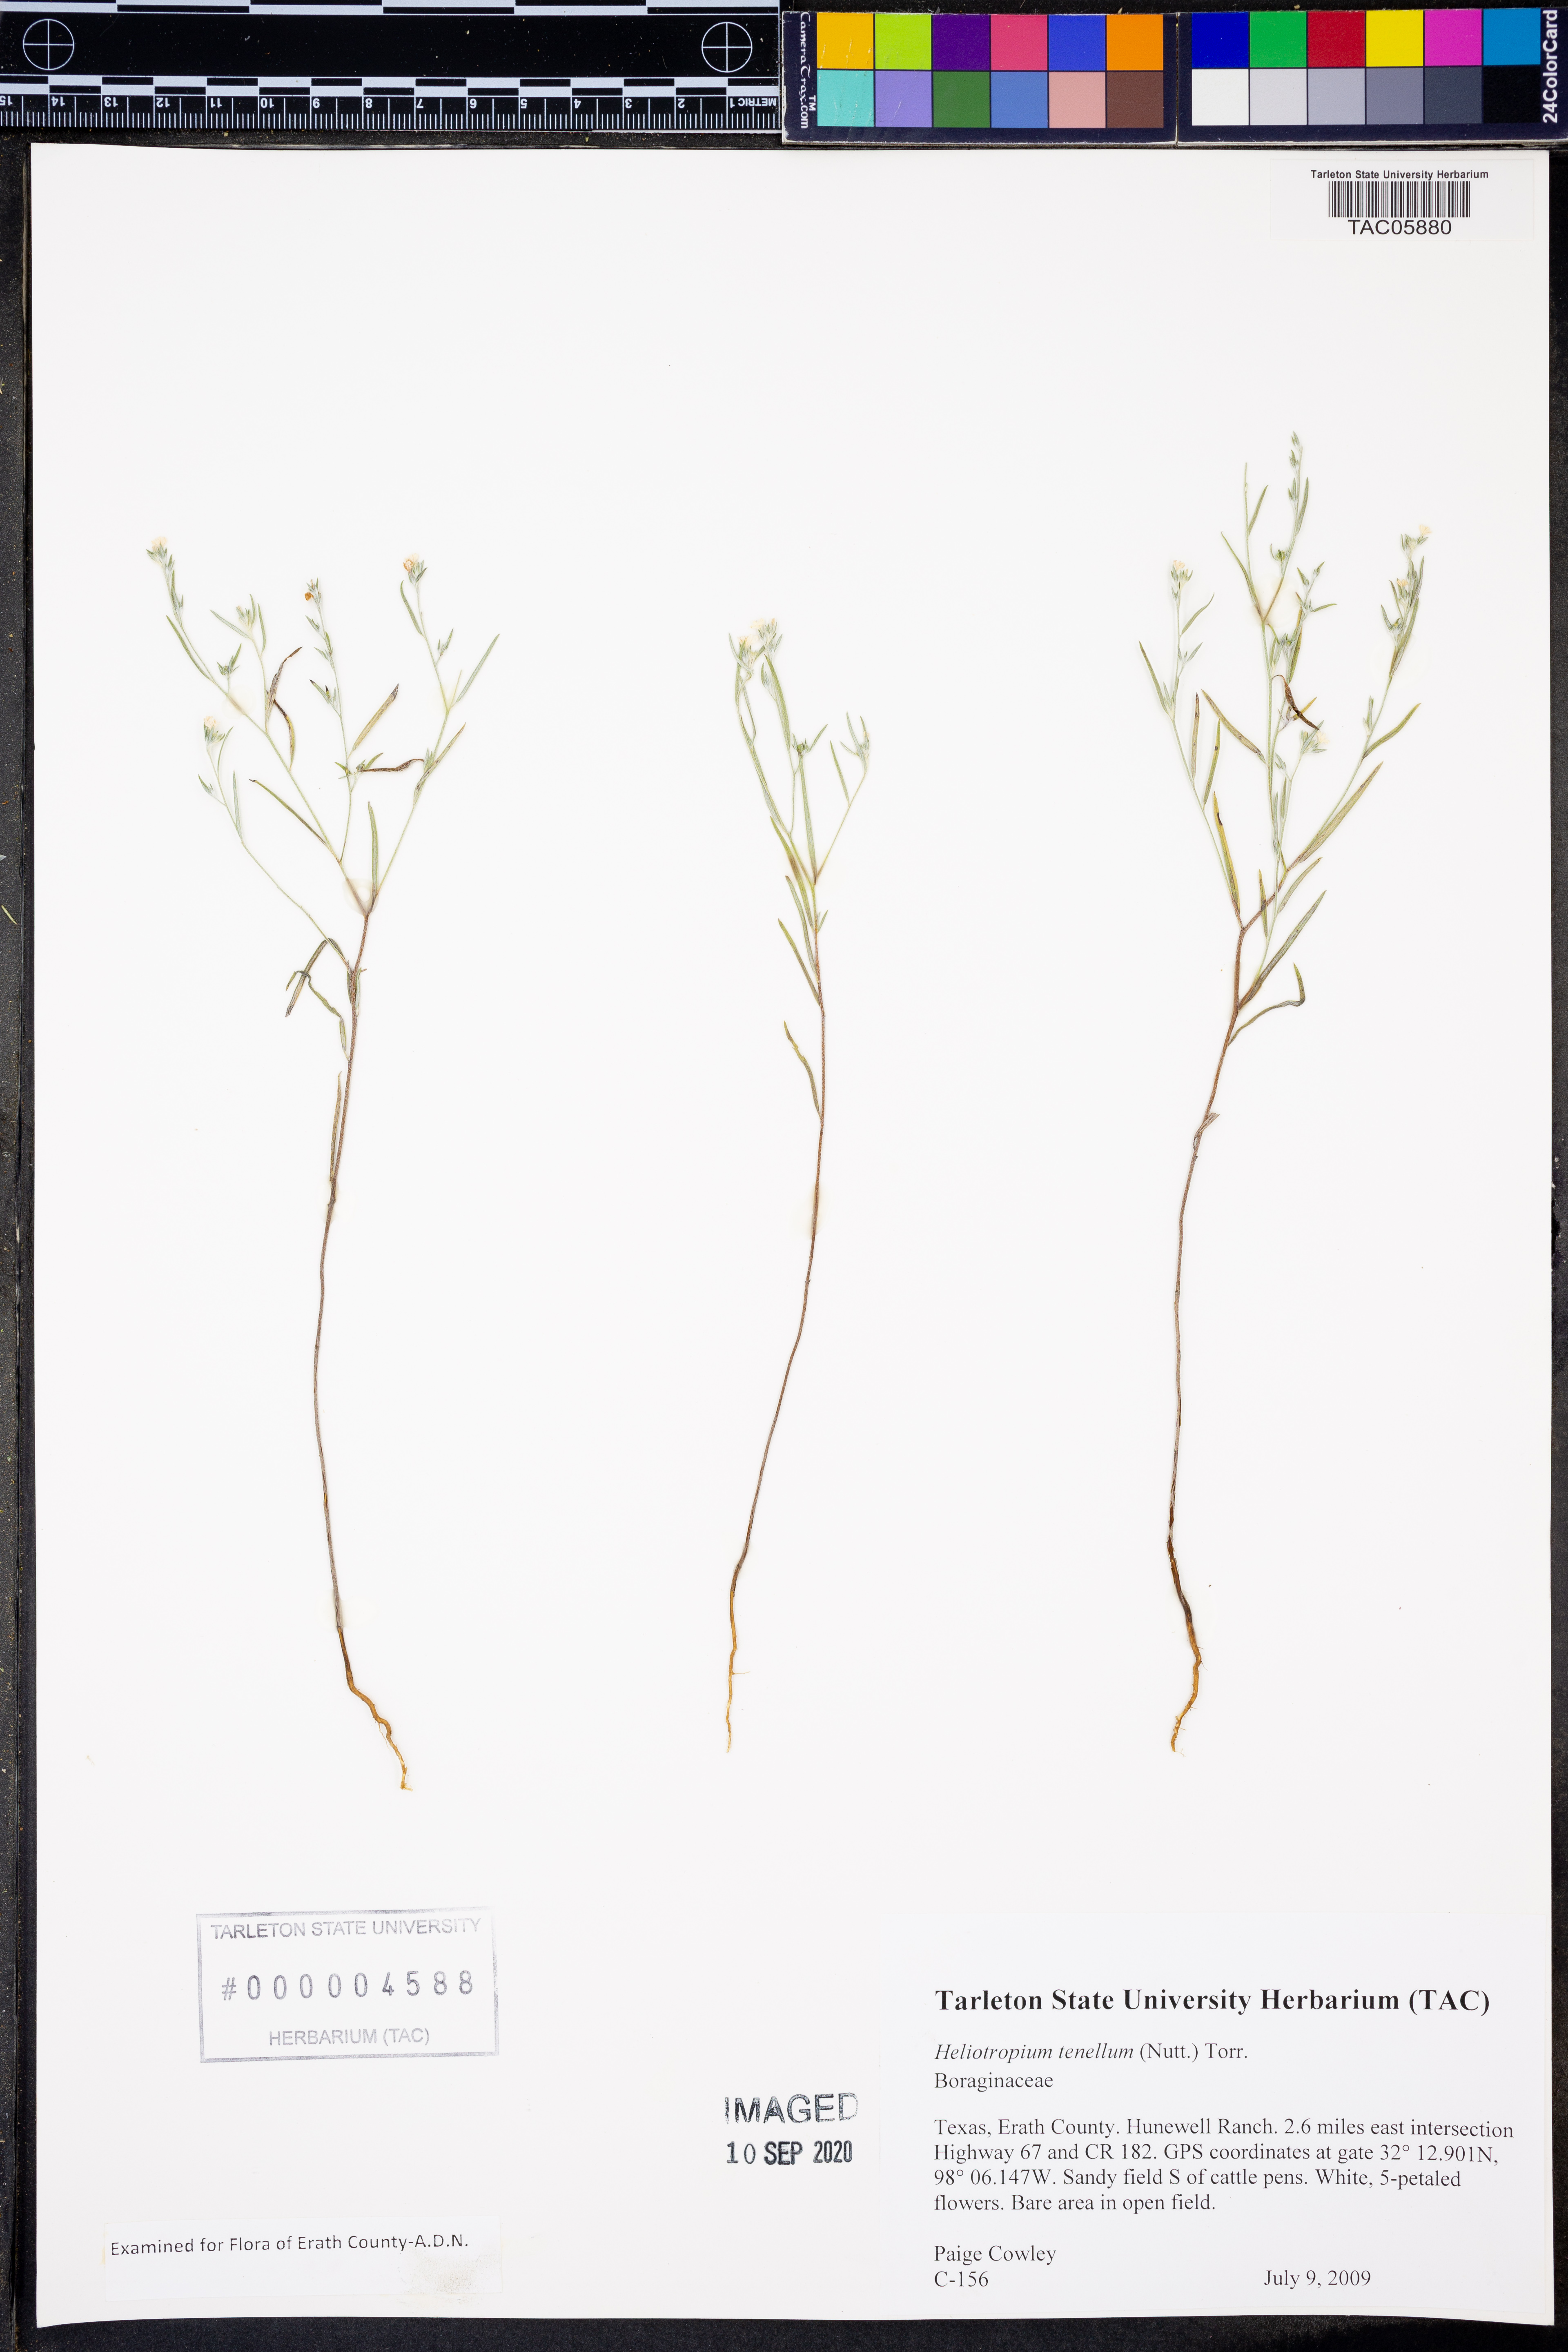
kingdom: Plantae
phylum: Tracheophyta
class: Magnoliopsida
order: Boraginales
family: Heliotropiaceae
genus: Euploca
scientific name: Euploca tenella
